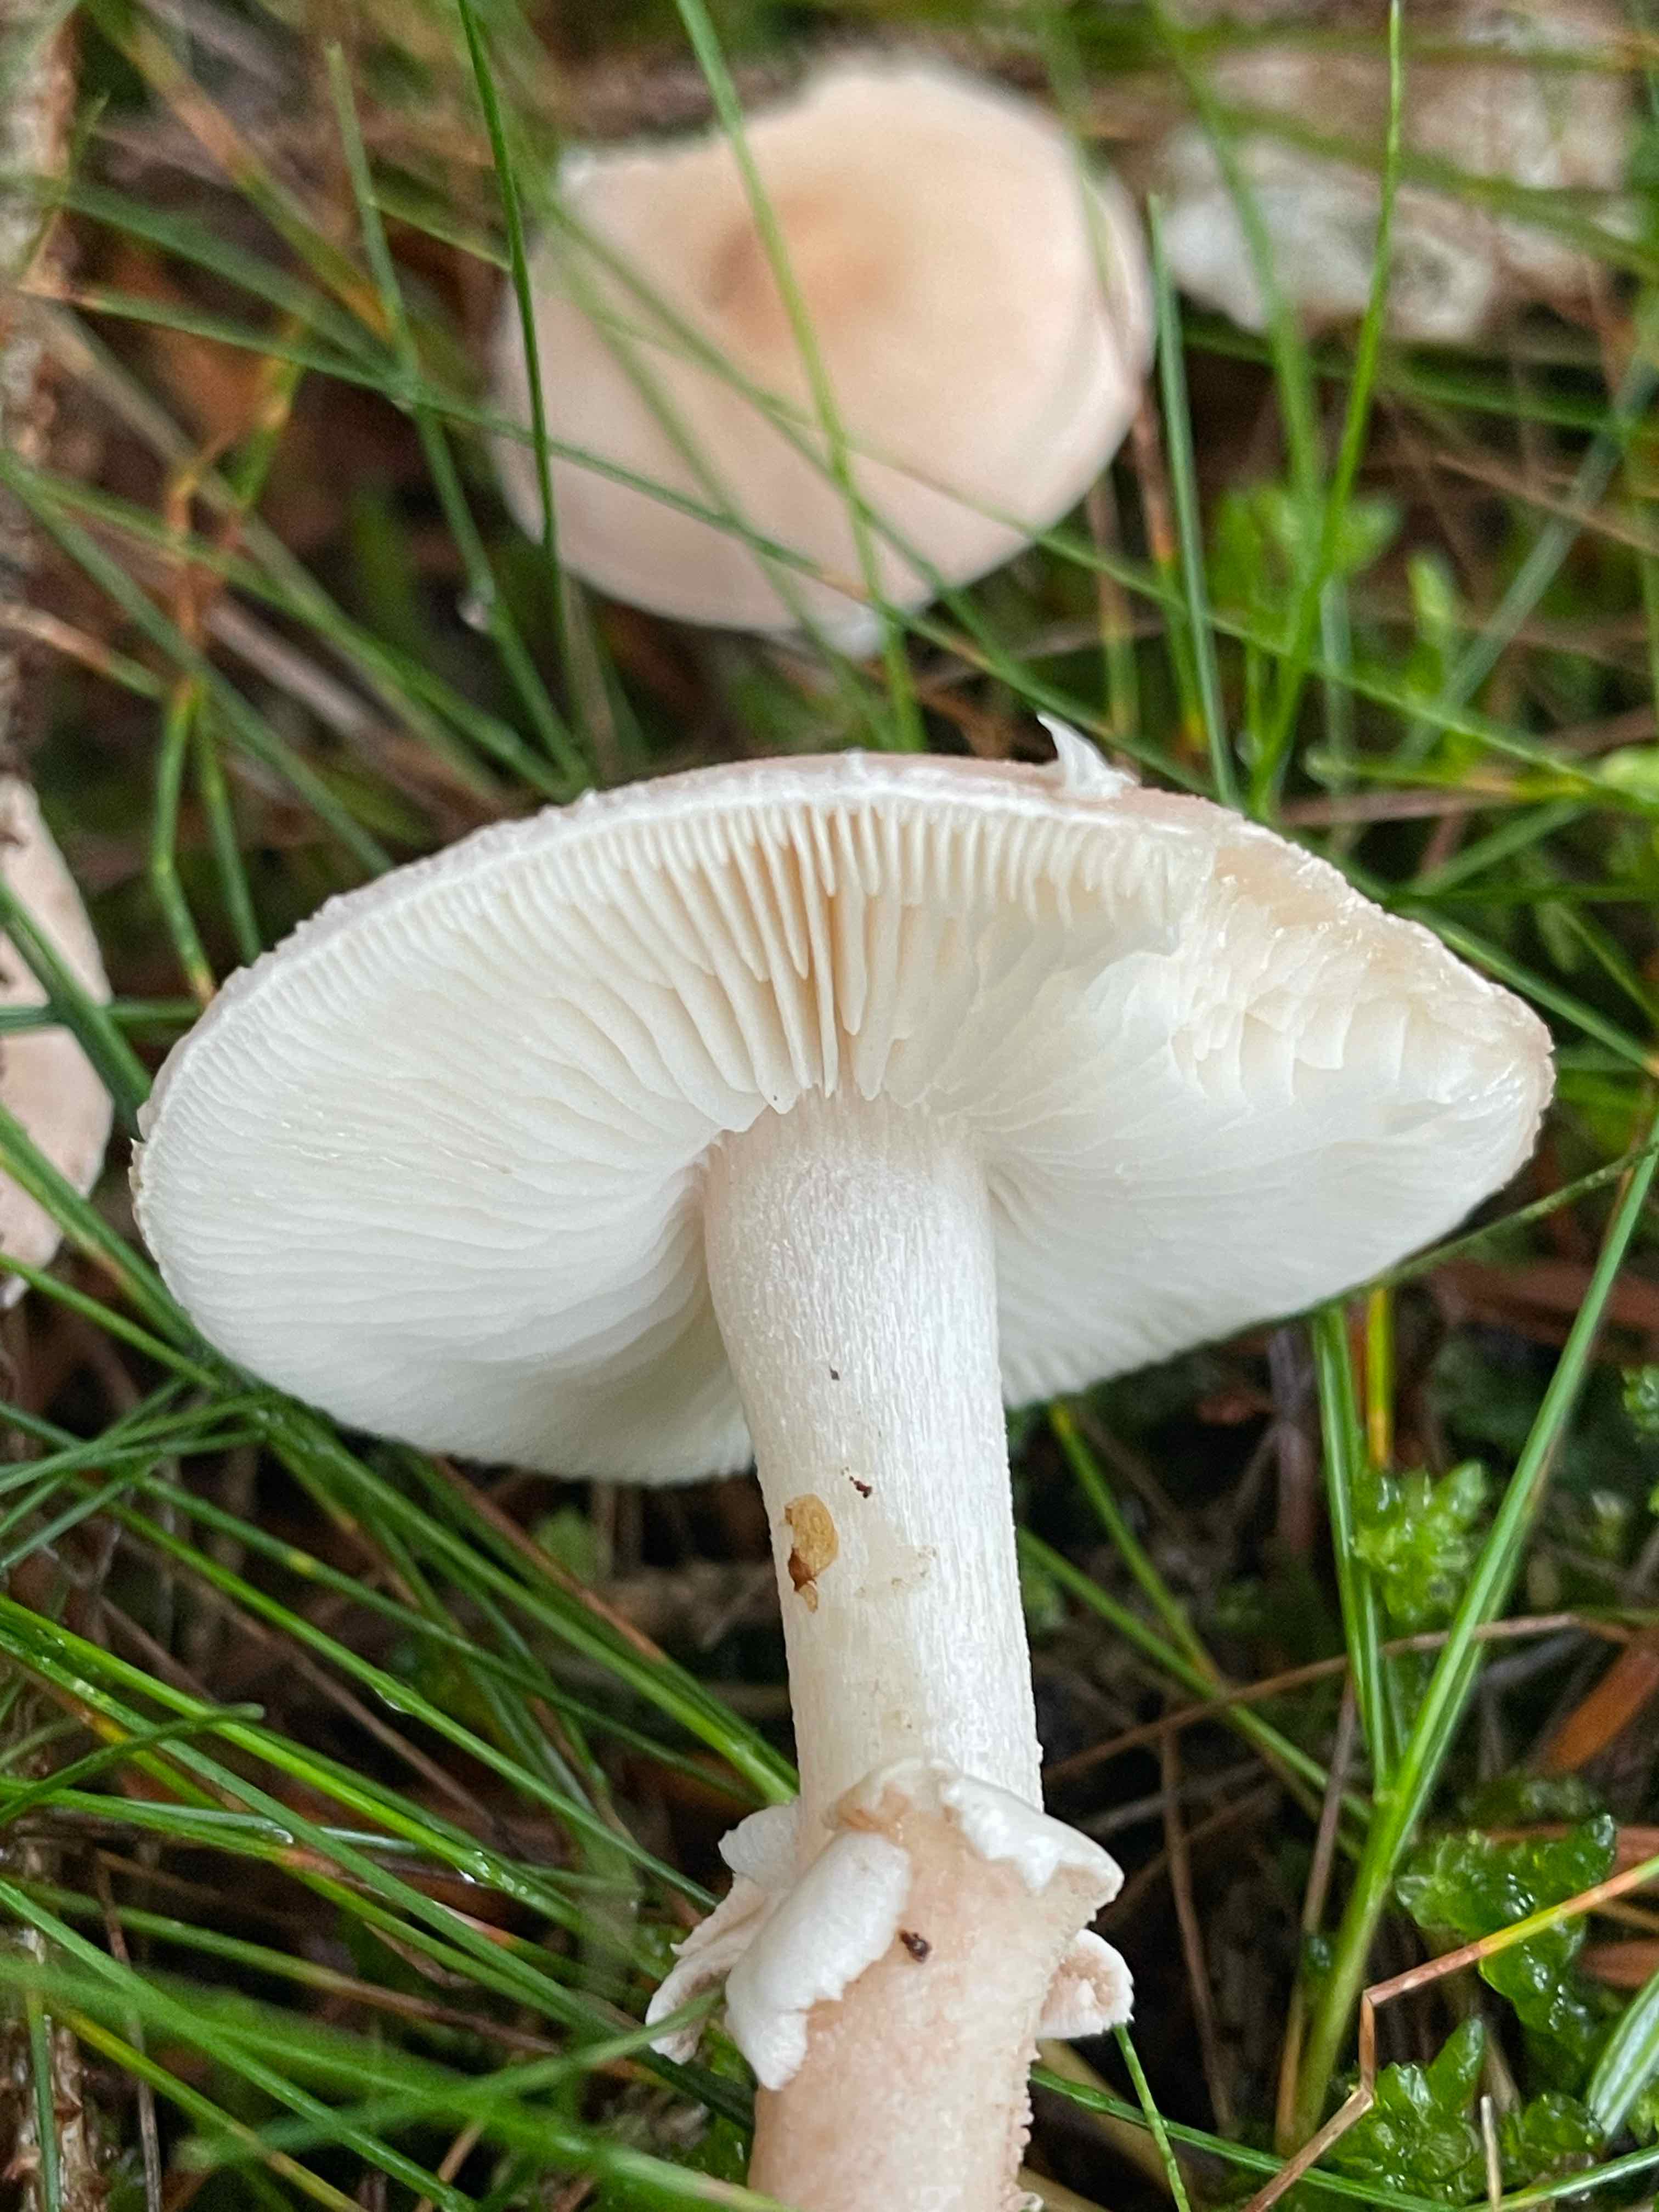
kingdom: Fungi
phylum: Basidiomycota
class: Agaricomycetes
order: Agaricales
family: Tricholomataceae
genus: Cystoderma
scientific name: Cystoderma carcharias
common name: rødgrå grynhat
